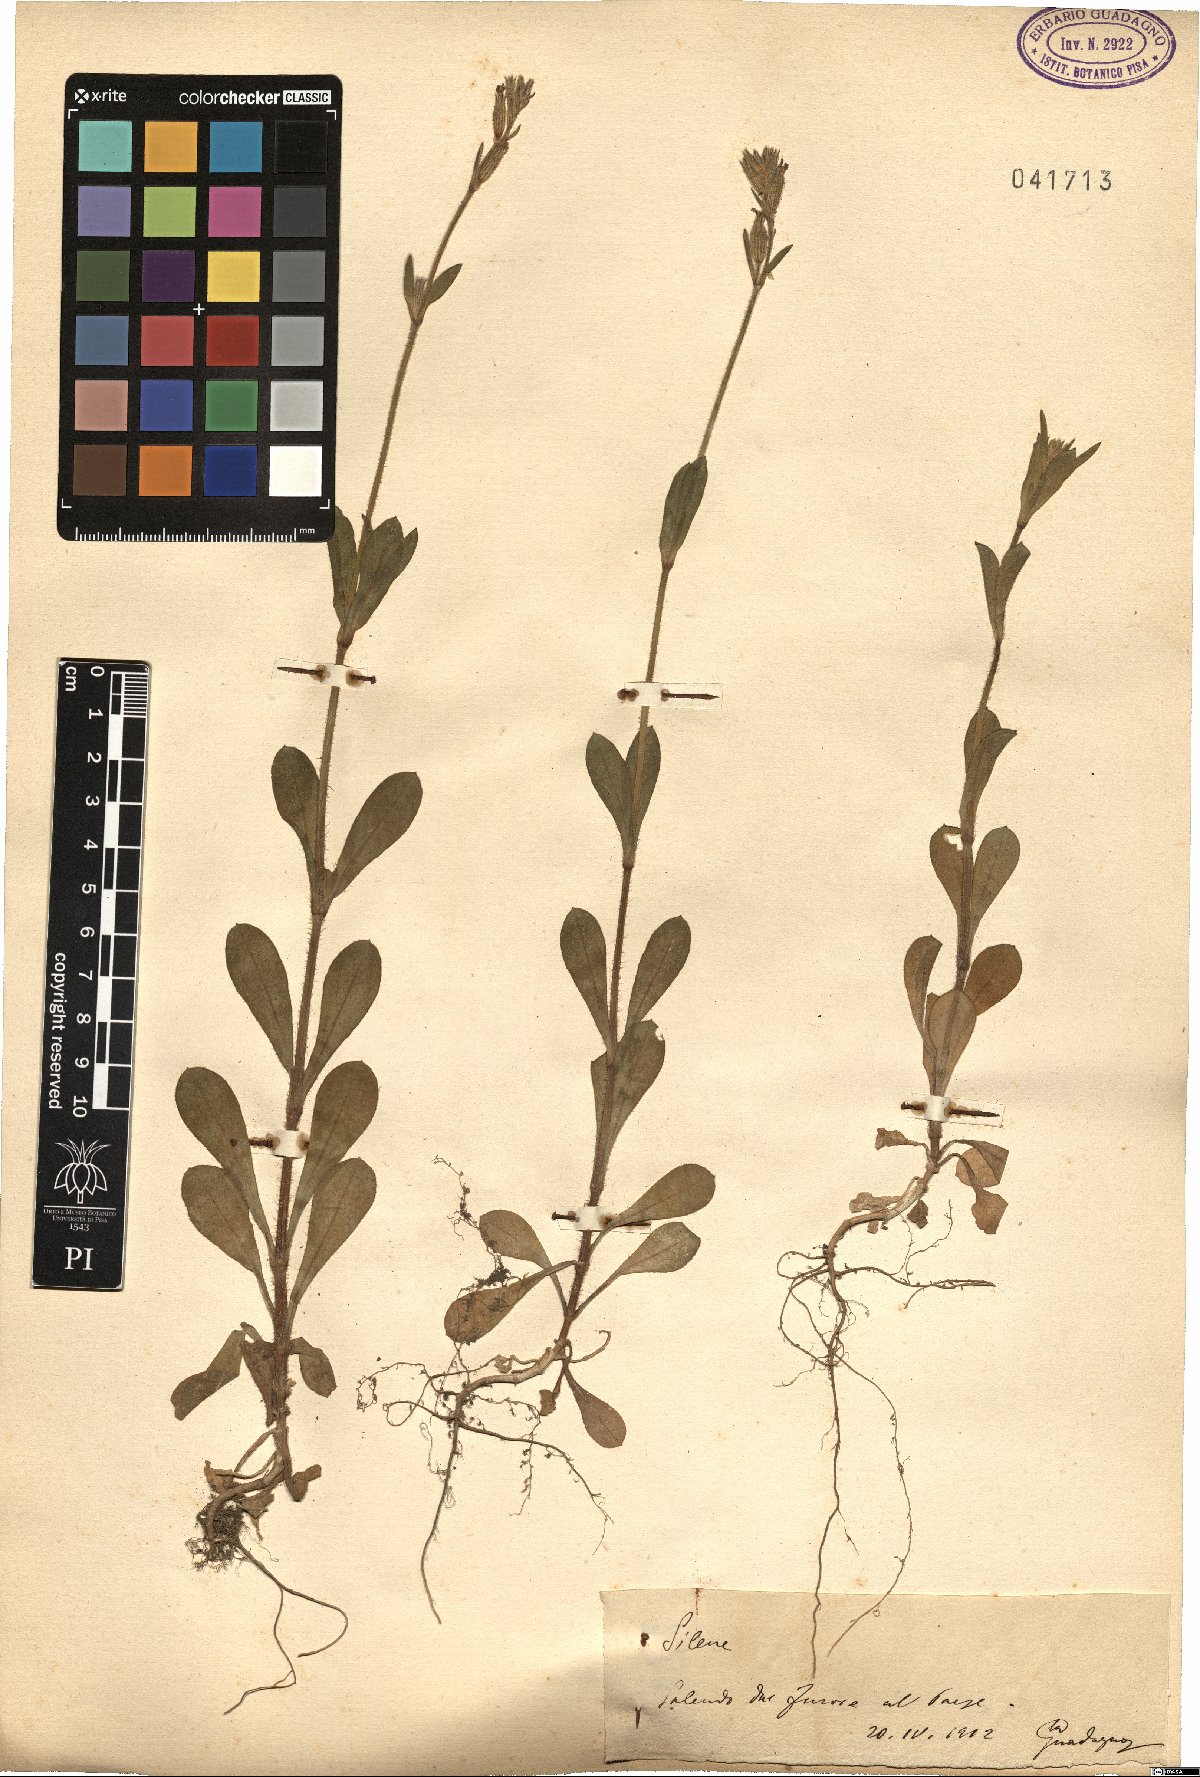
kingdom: Plantae
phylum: Tracheophyta
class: Magnoliopsida
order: Caryophyllales
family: Caryophyllaceae
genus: Silene
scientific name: Silene
